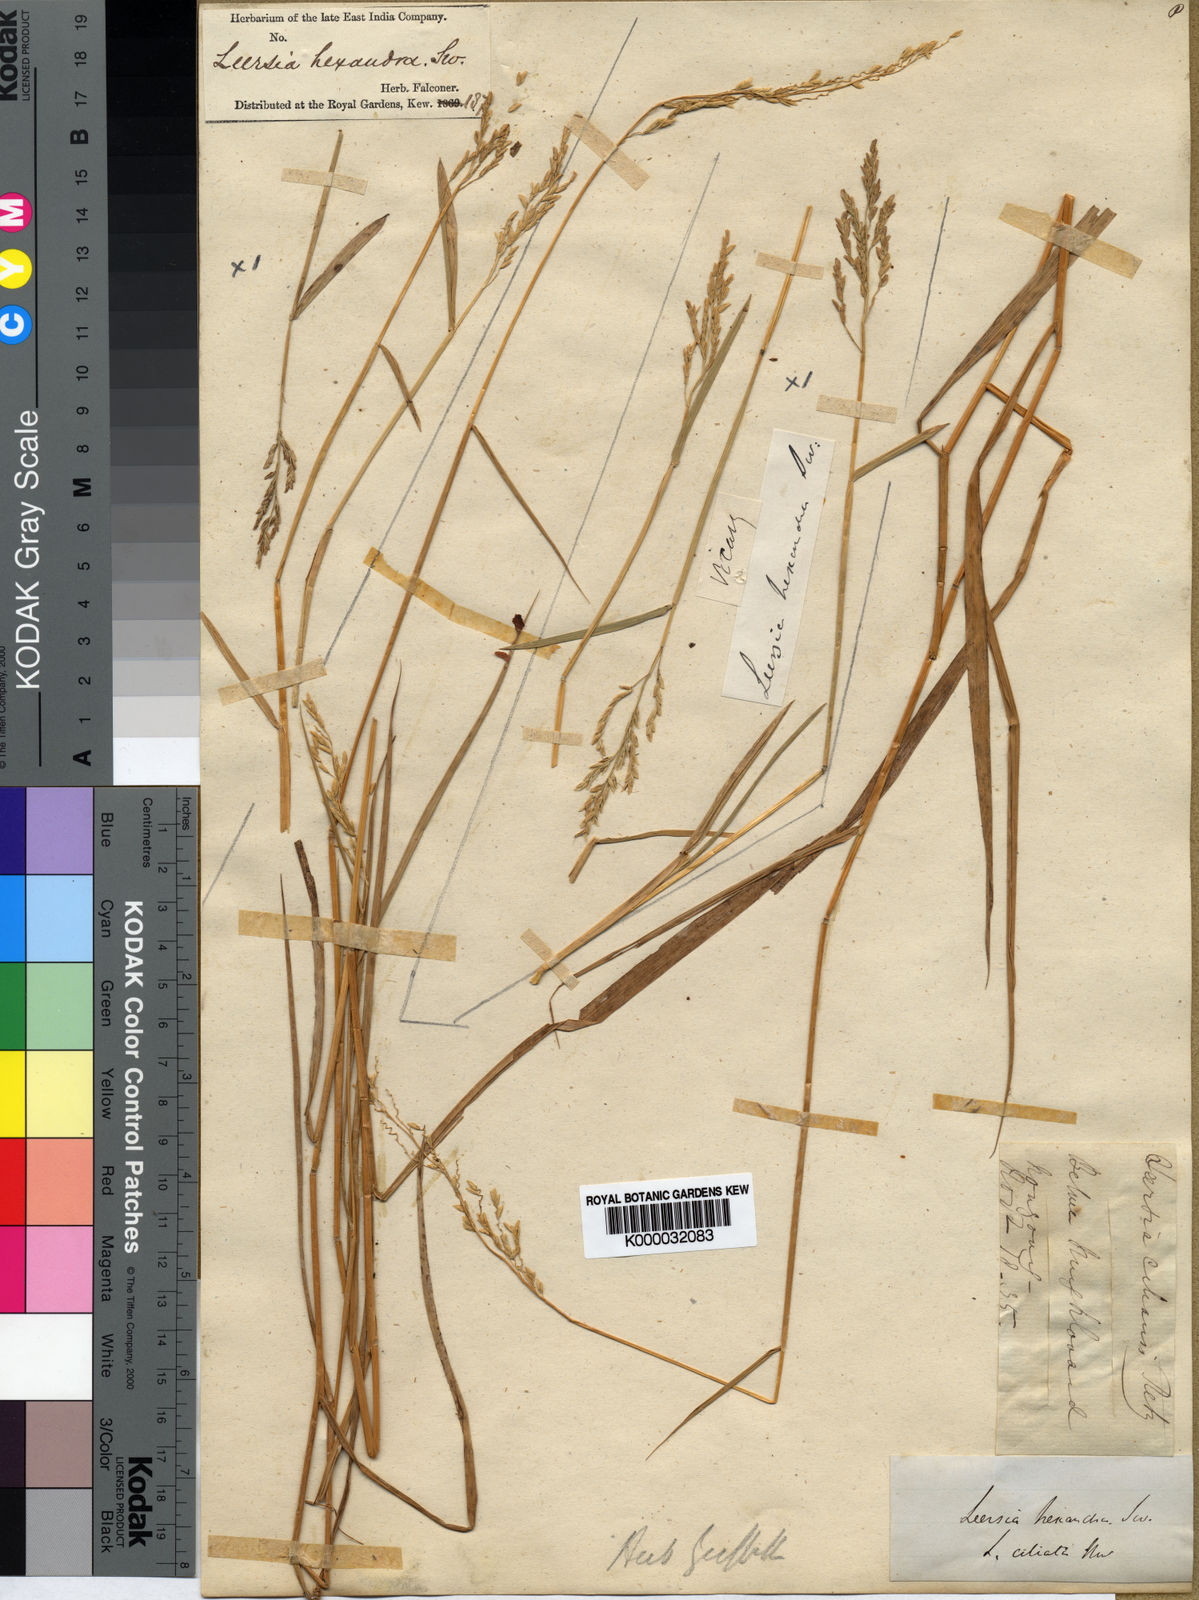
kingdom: Plantae
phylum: Tracheophyta
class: Liliopsida
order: Poales
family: Poaceae
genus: Leersia
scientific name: Leersia hexandra
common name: Southern cut grass
